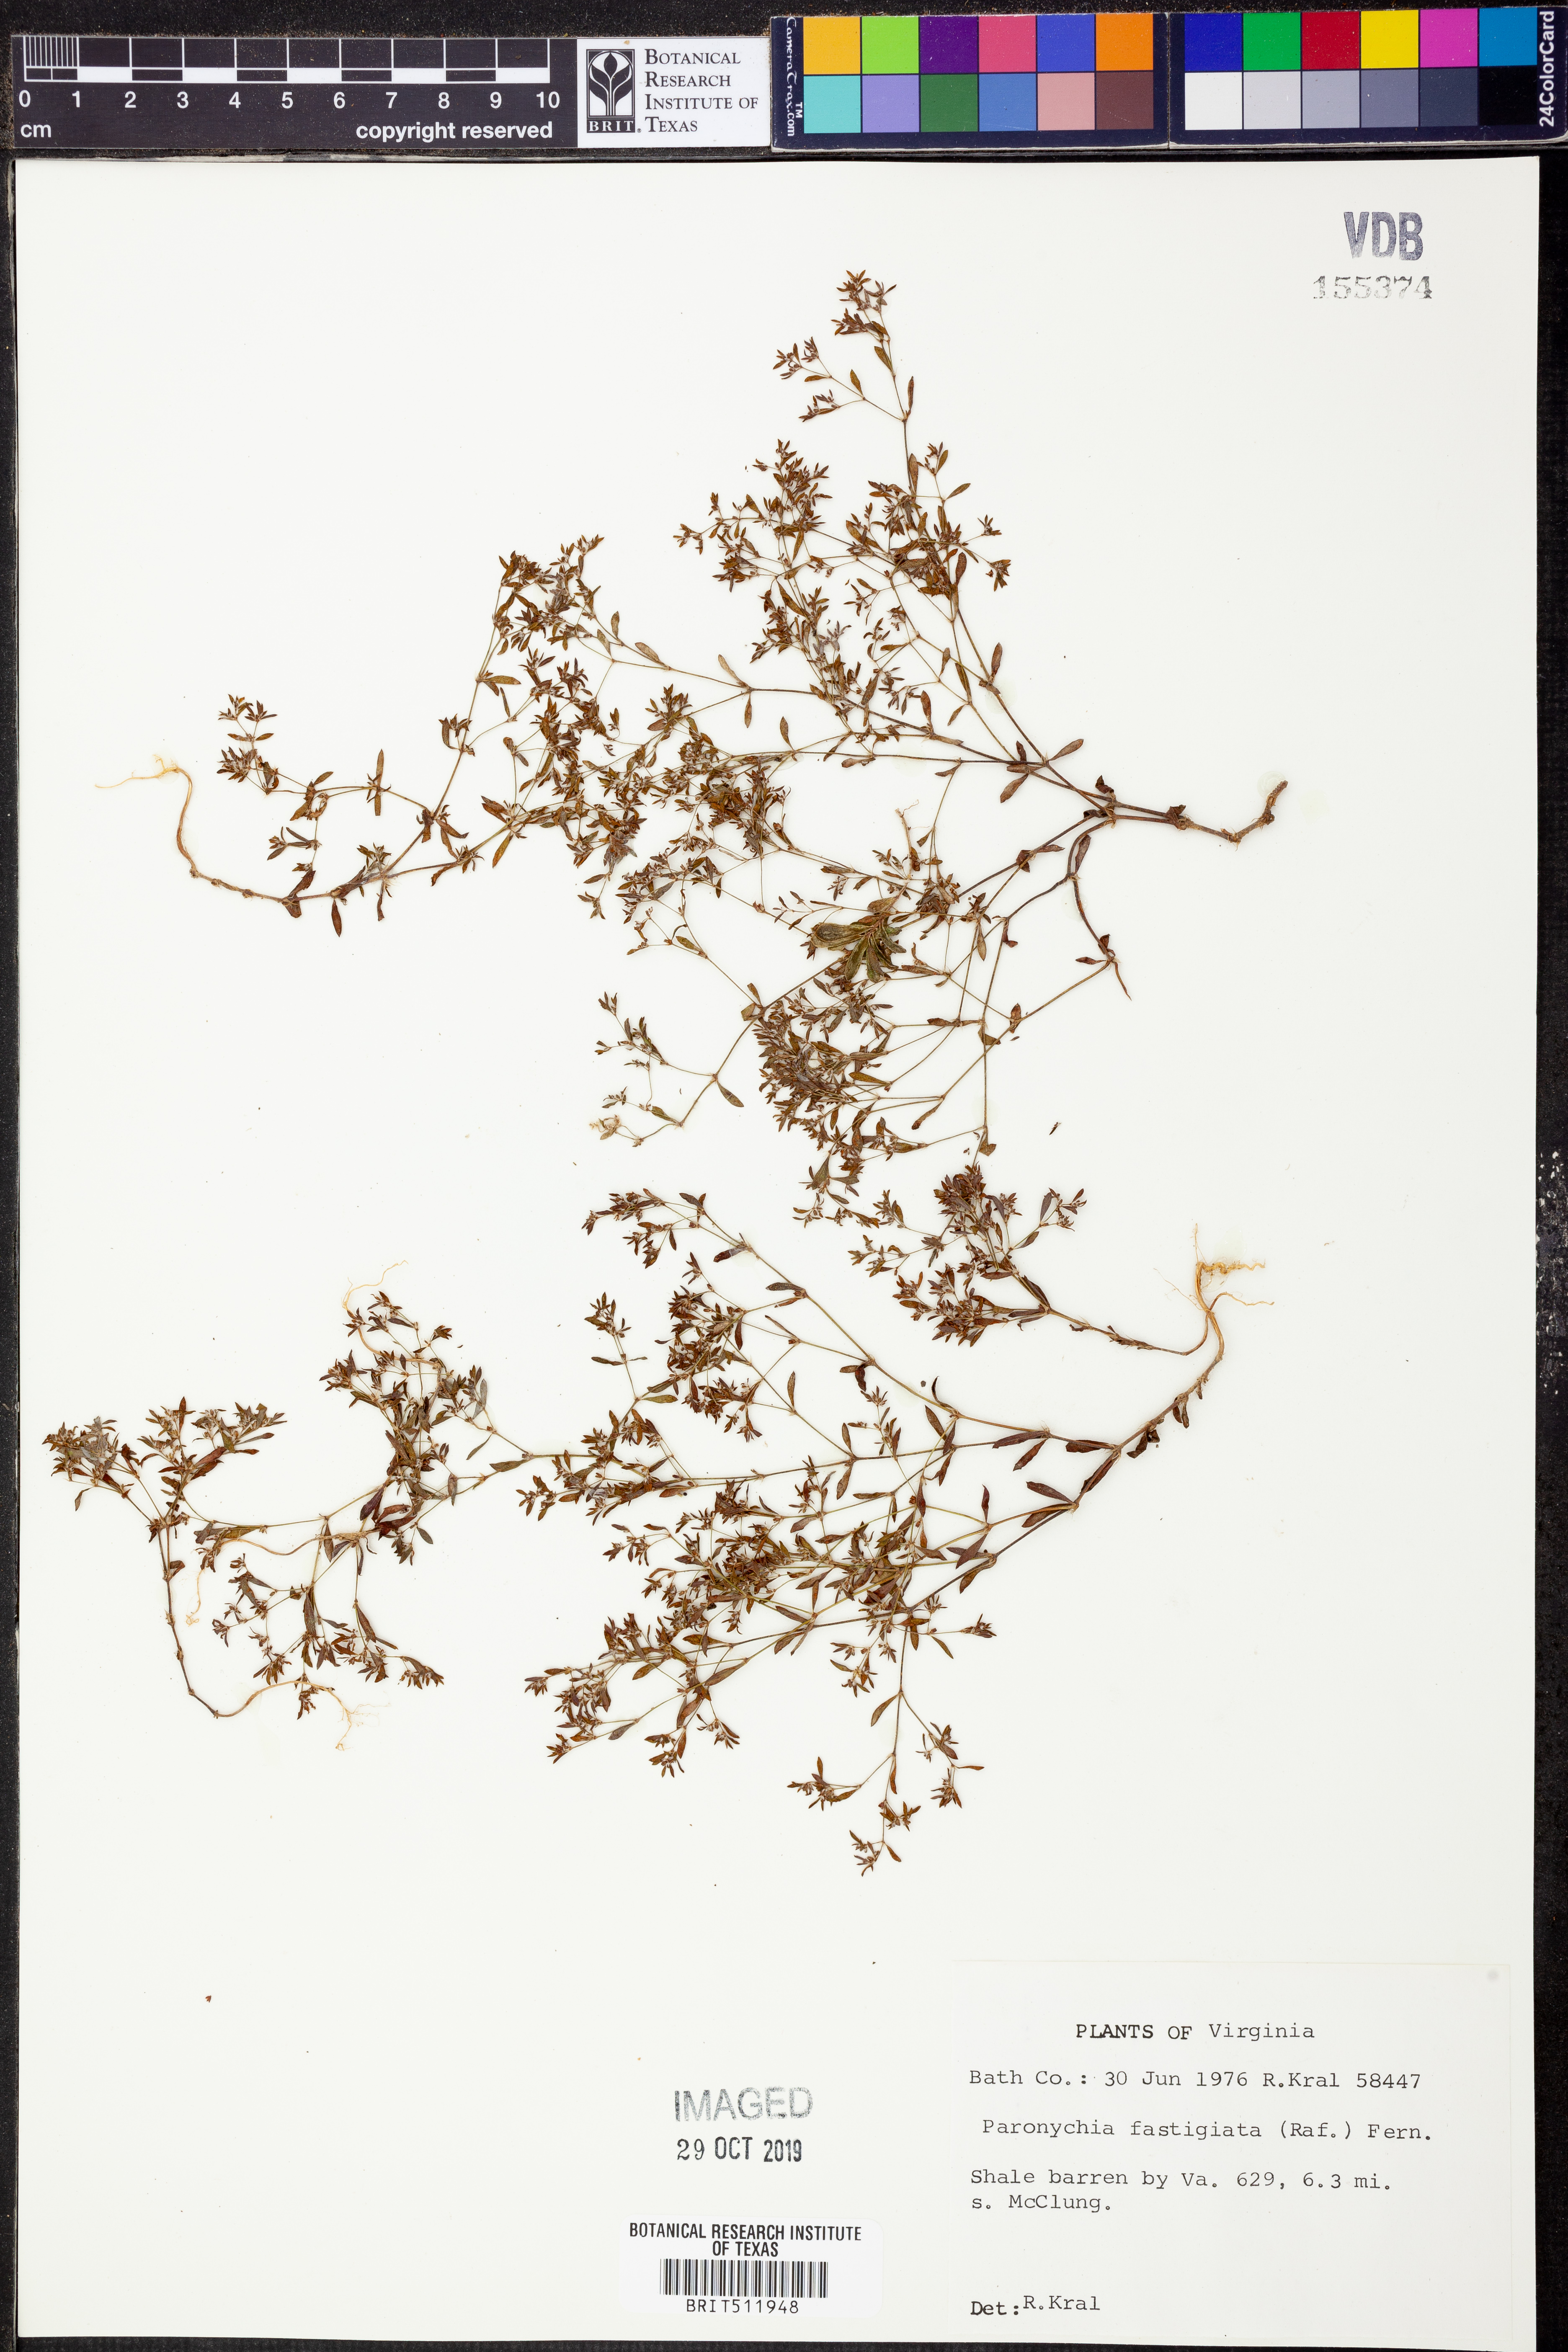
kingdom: Plantae
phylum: Tracheophyta
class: Magnoliopsida
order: Caryophyllales
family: Caryophyllaceae
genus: Paronychia
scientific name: Paronychia fastigiata
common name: Branching forked whitlow-wort
